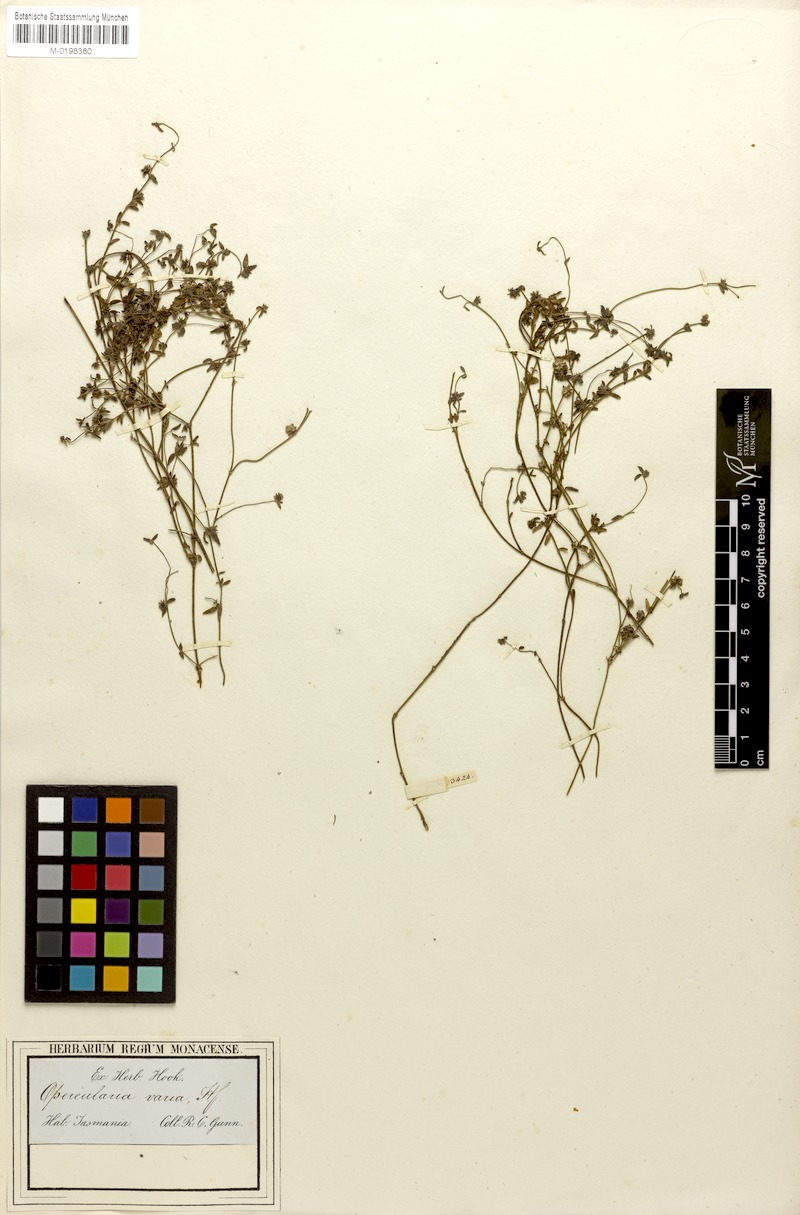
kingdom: Plantae
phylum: Tracheophyta
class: Magnoliopsida
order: Gentianales
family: Rubiaceae
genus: Opercularia
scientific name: Opercularia varia
